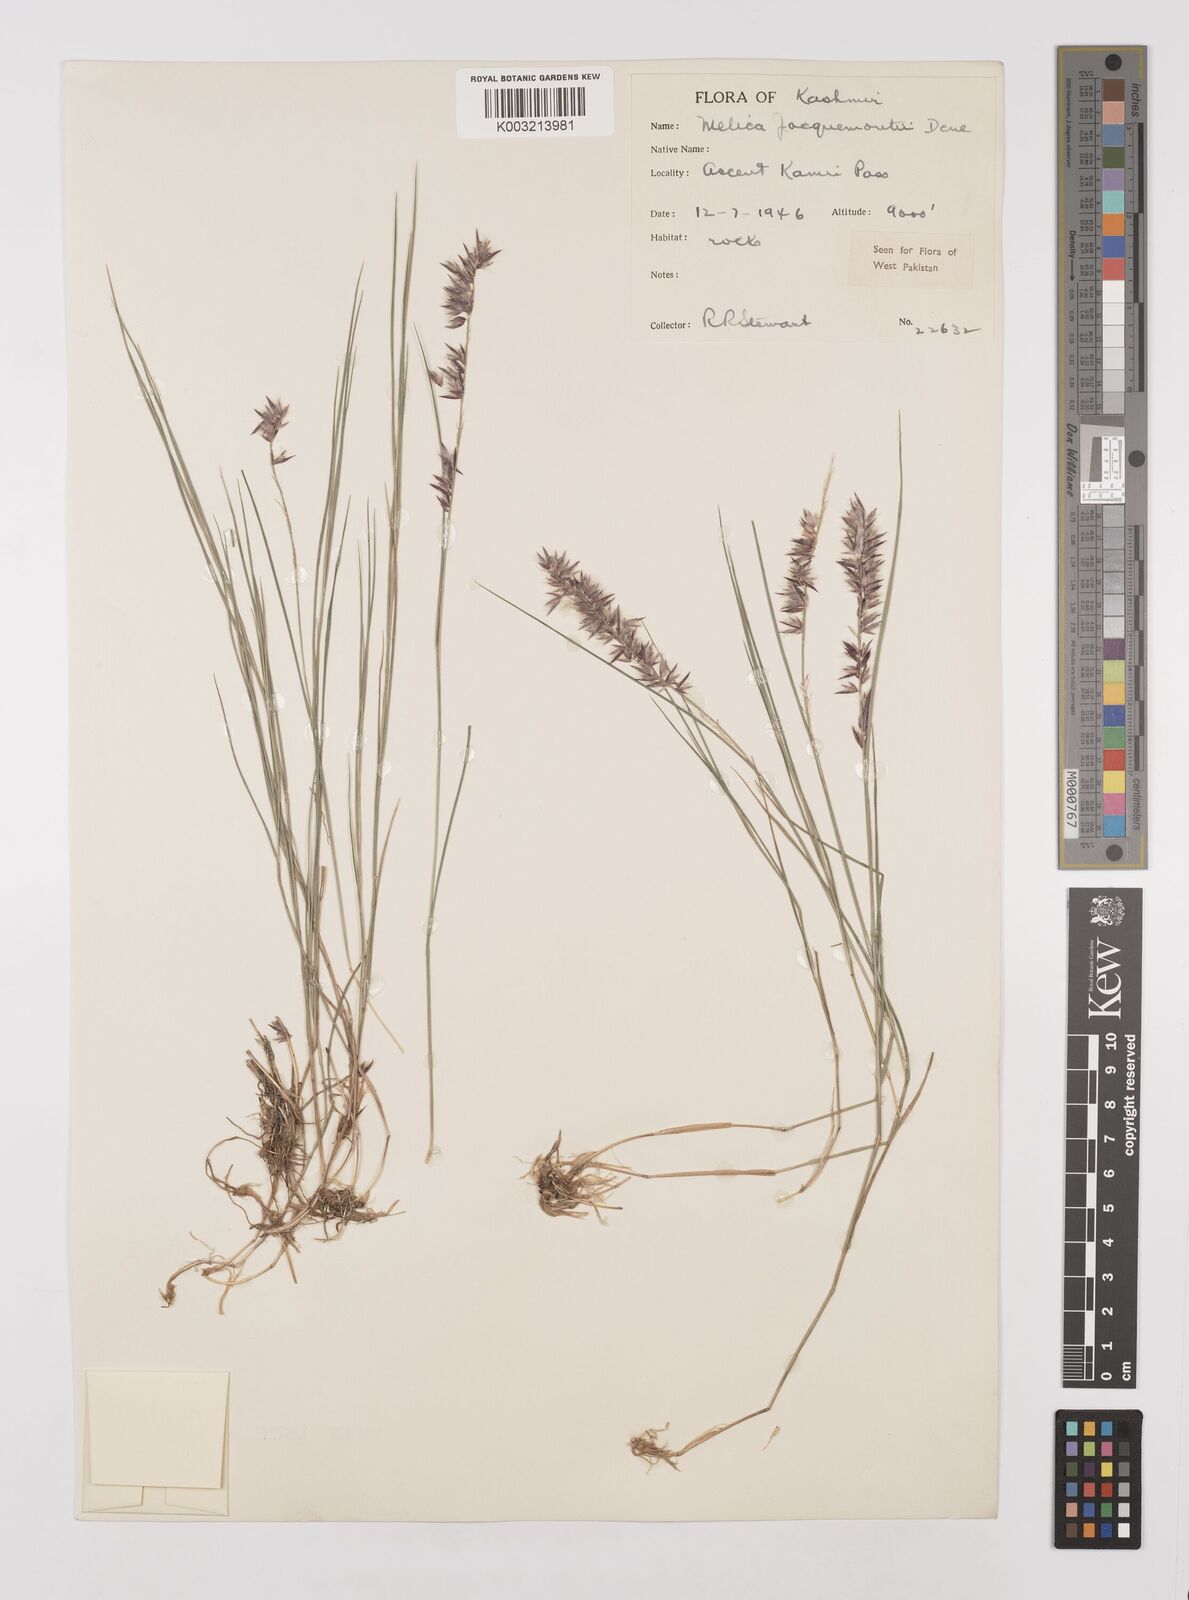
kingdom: Plantae
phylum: Tracheophyta
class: Liliopsida
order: Poales
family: Poaceae
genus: Melica
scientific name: Melica persica
